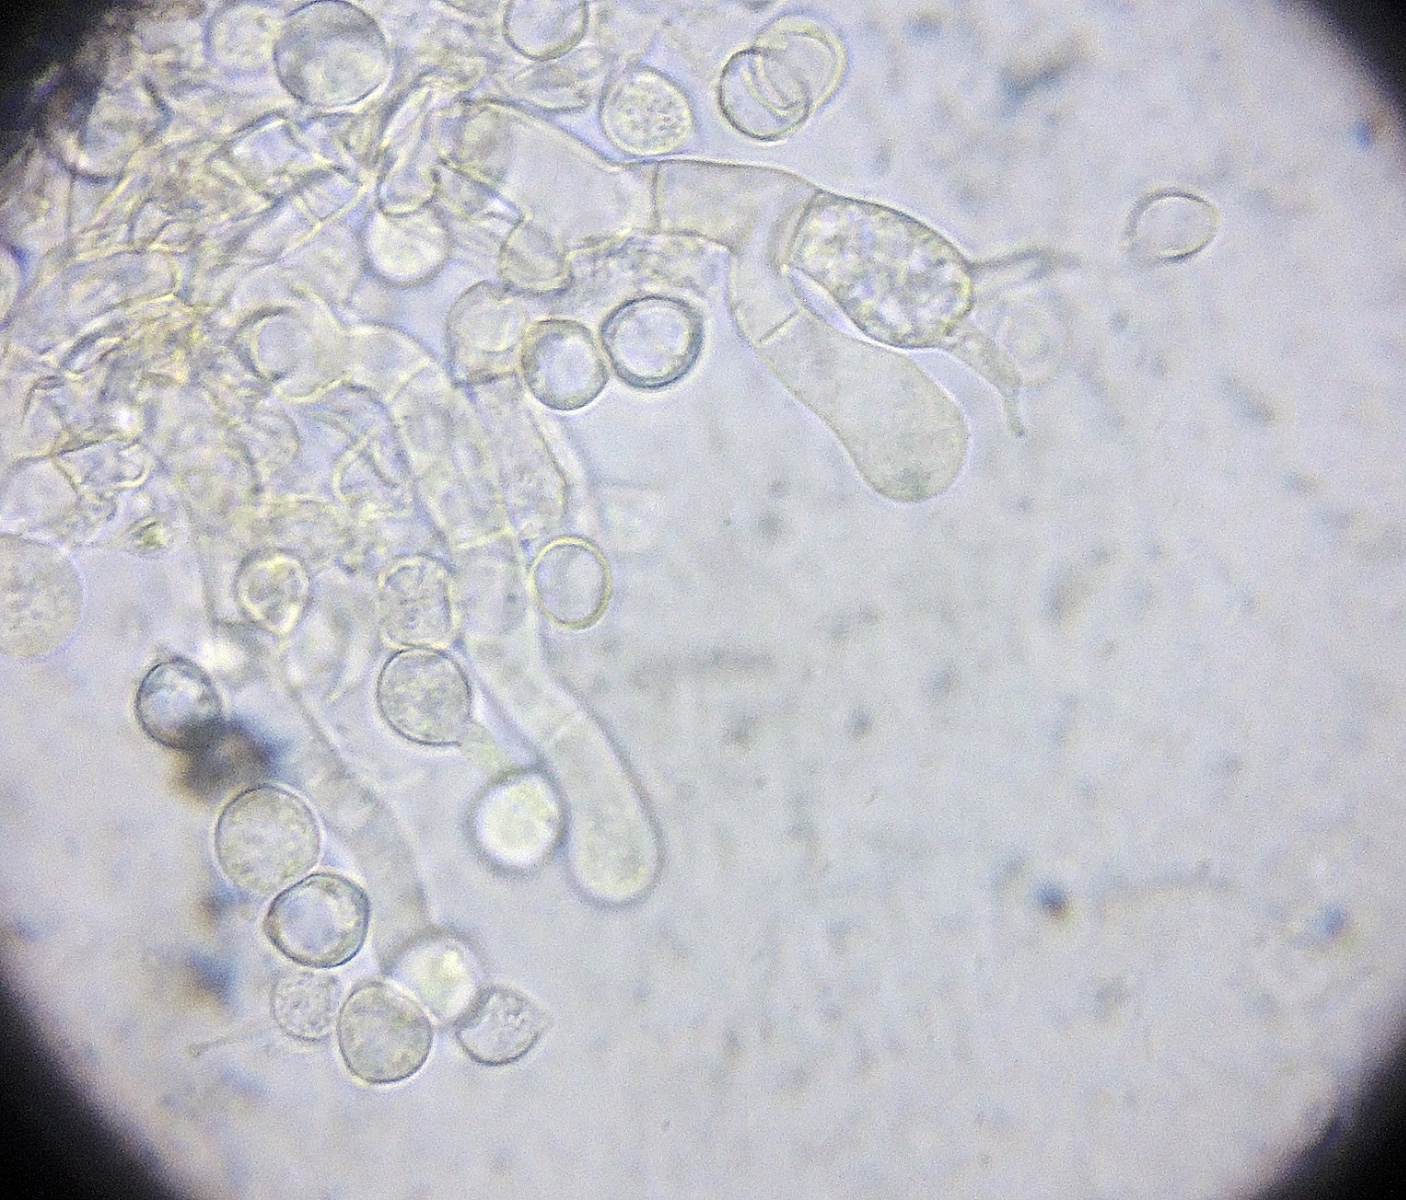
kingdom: Fungi
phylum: Basidiomycota
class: Agaricomycetes
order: Cantharellales
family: Ceratobasidiaceae
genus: Rhizoctonia
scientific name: Rhizoctonia ochracea
